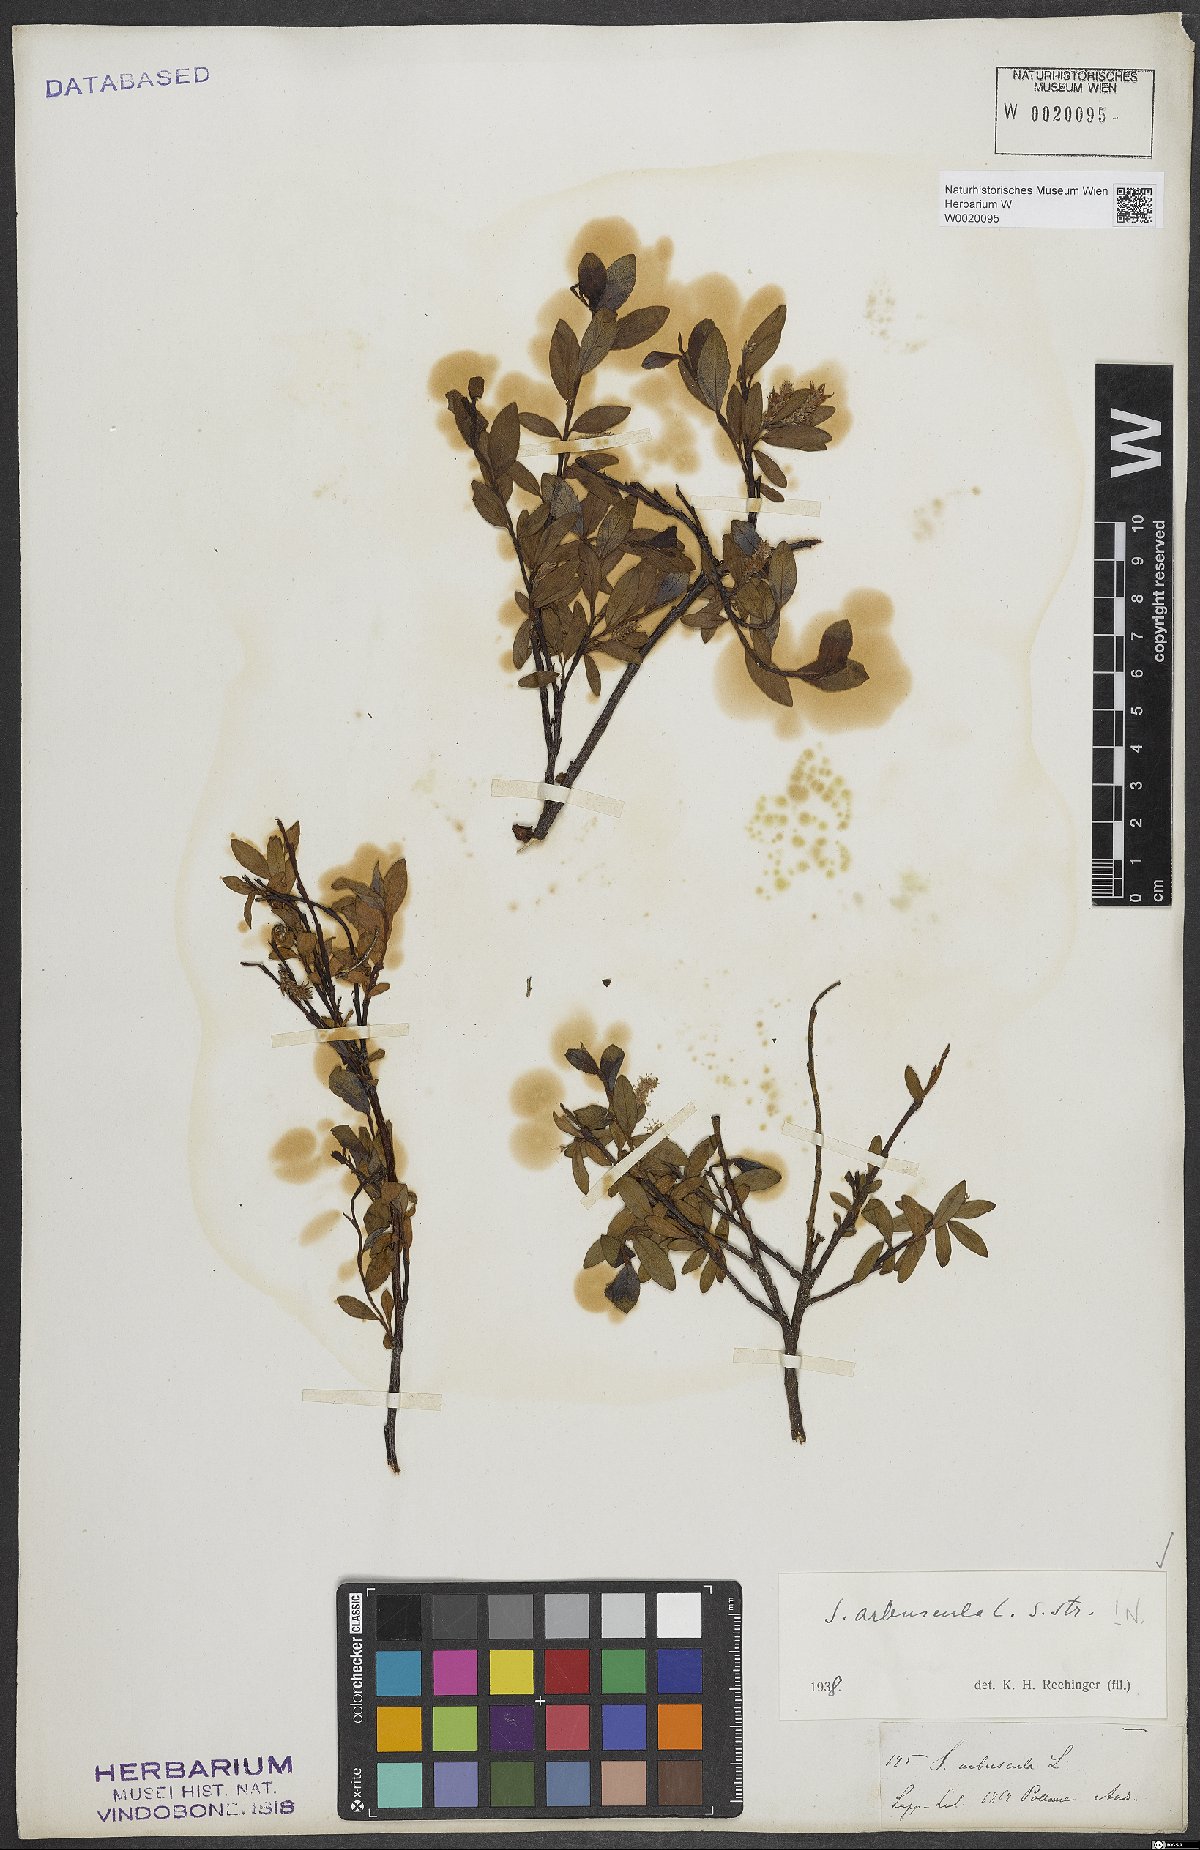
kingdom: Plantae
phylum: Tracheophyta
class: Magnoliopsida
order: Malpighiales
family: Salicaceae
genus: Salix
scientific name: Salix arbuscula
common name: Mountain willow
